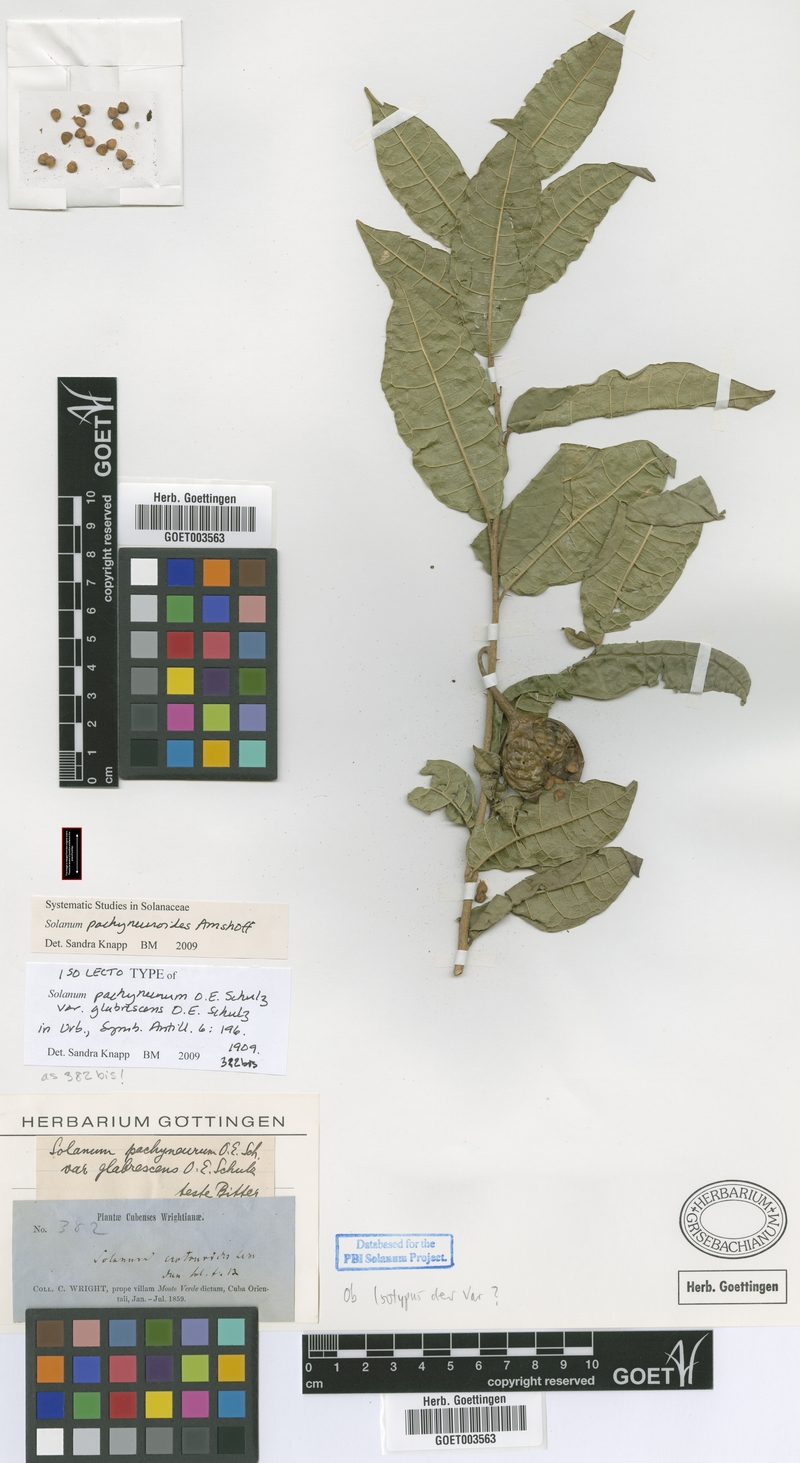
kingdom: Plantae
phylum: Tracheophyta
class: Magnoliopsida
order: Solanales
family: Solanaceae
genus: Solanum
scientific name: Solanum pachyneurum
